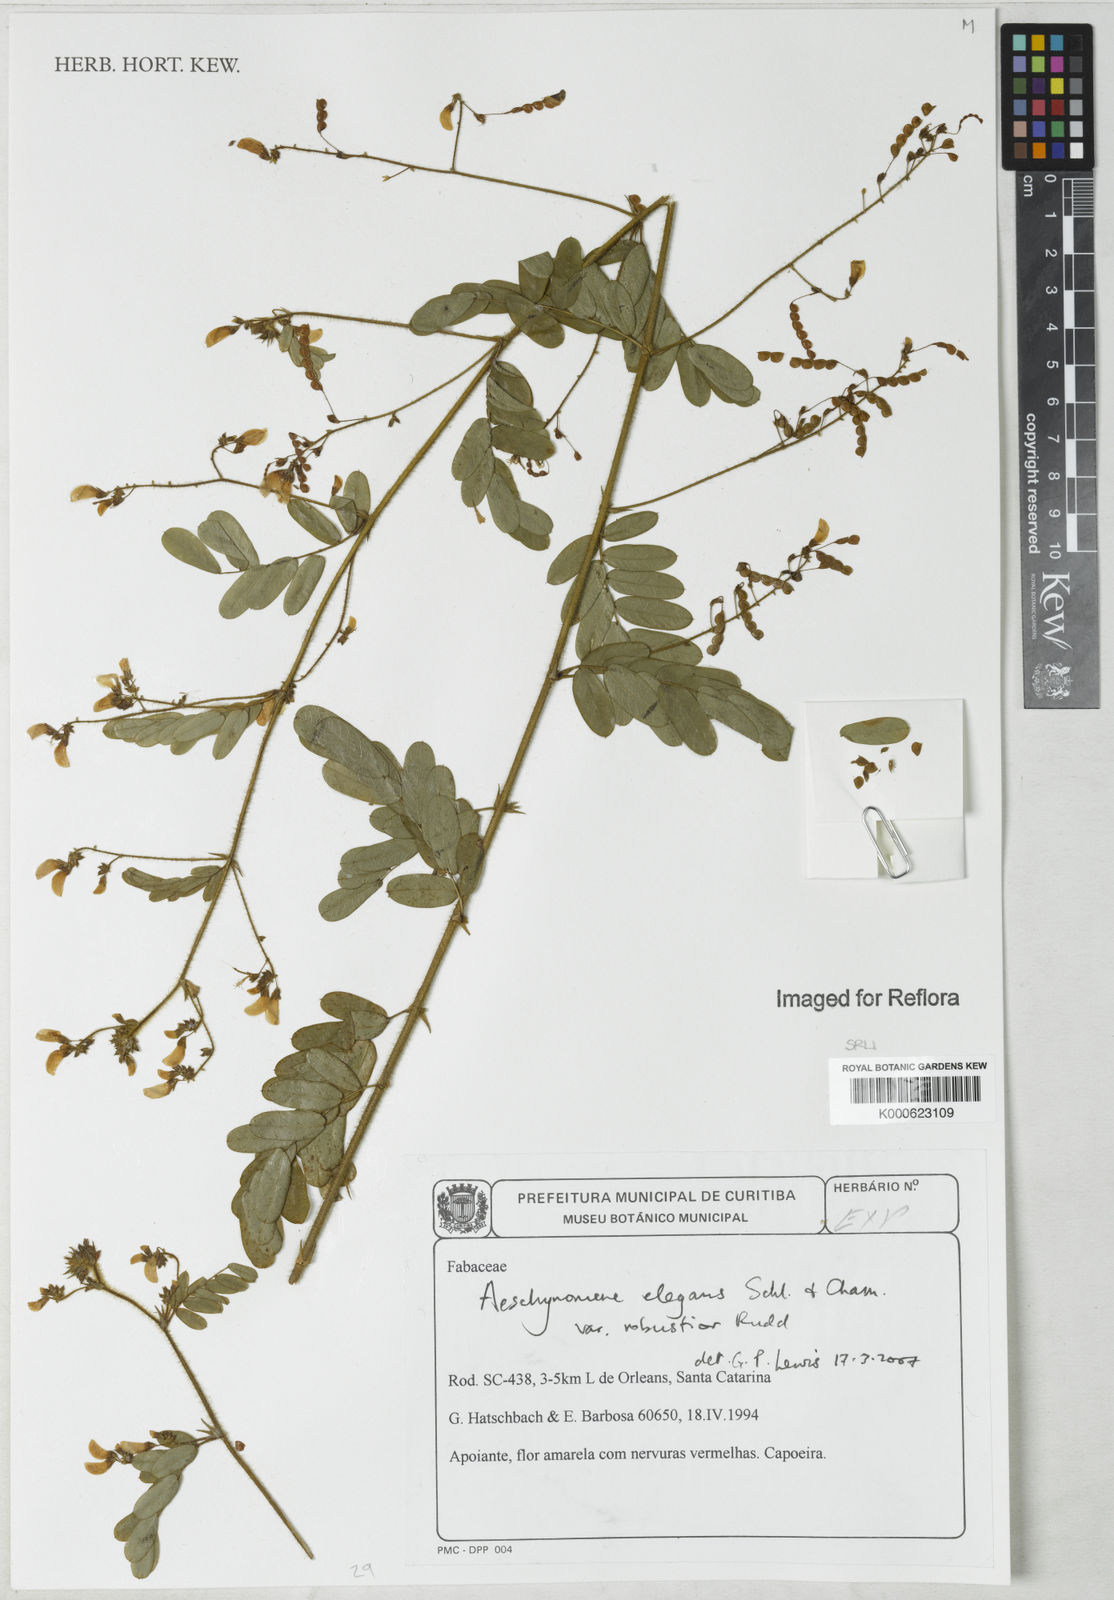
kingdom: Plantae
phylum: Tracheophyta
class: Magnoliopsida
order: Fabales
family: Fabaceae
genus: Ctenodon
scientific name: Ctenodon elegans
